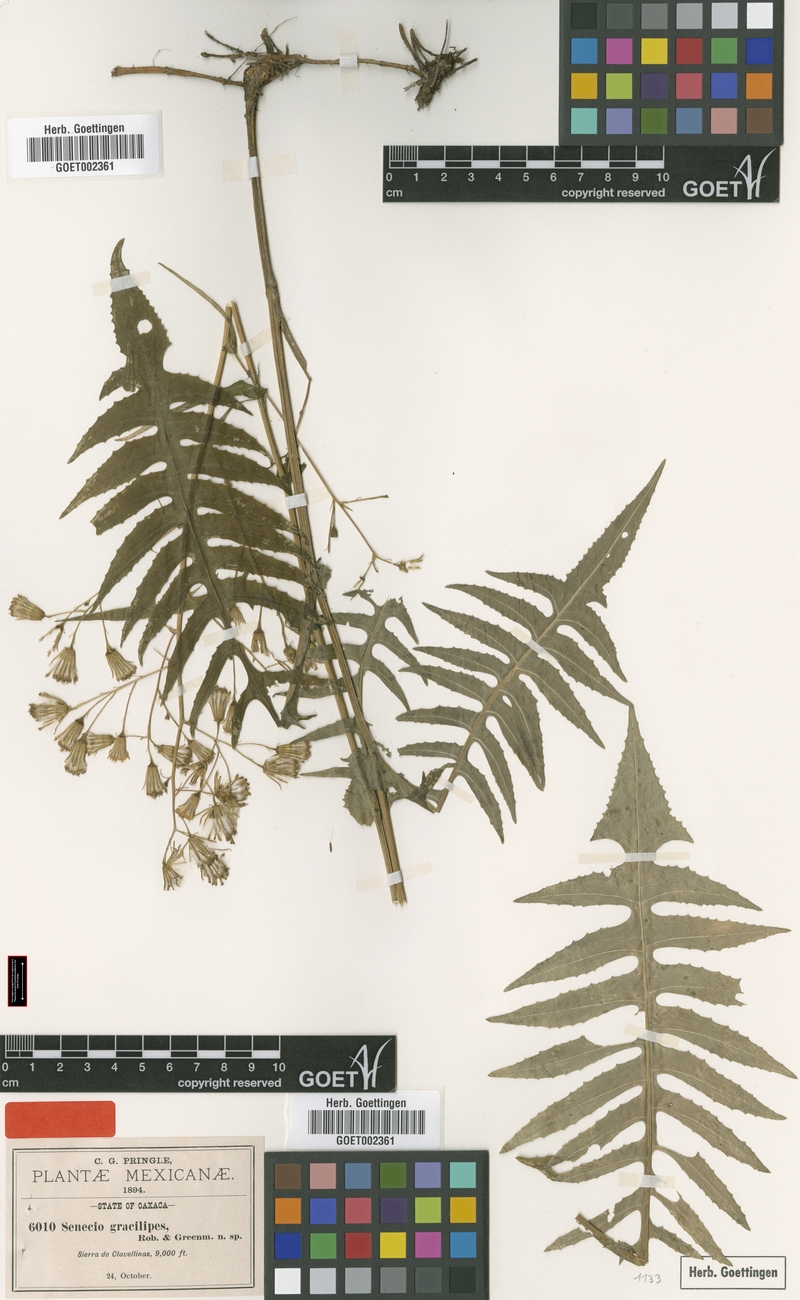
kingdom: Plantae
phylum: Tracheophyta
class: Magnoliopsida
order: Asterales
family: Asteraceae
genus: Senecio
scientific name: Senecio polypodioides
